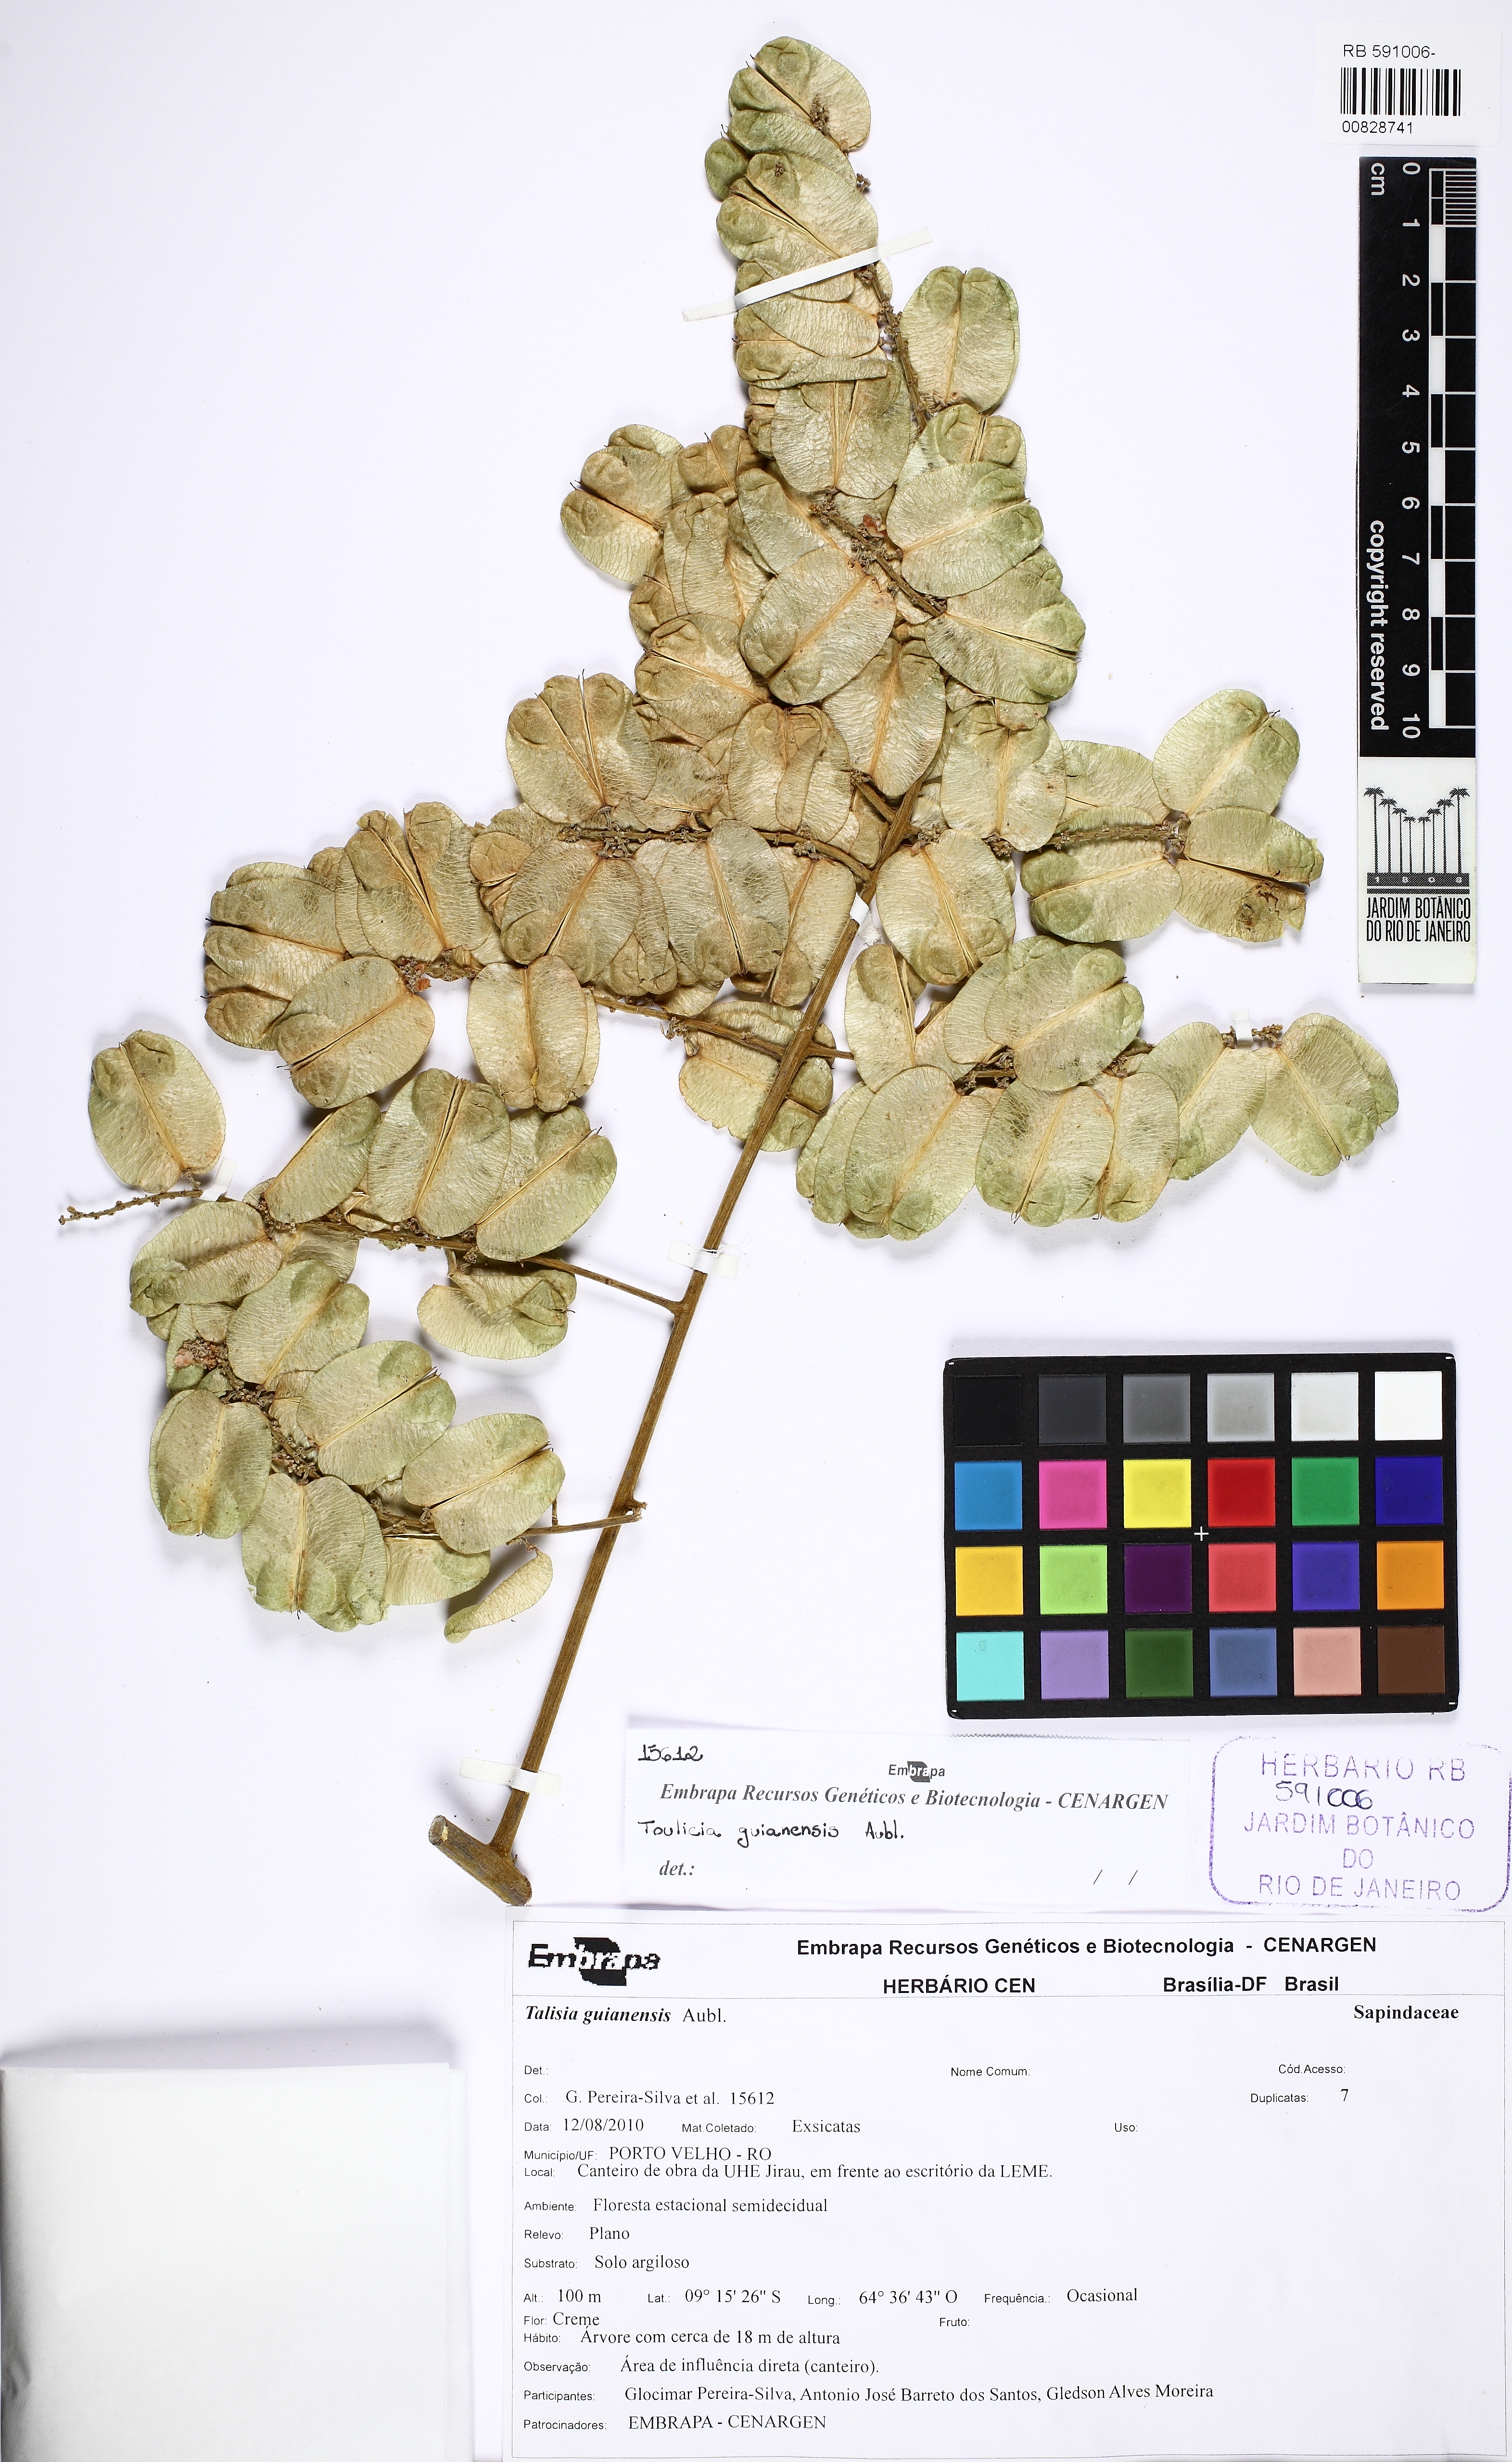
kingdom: Plantae
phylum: Tracheophyta
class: Magnoliopsida
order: Sapindales
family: Sapindaceae
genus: Toulicia
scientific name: Toulicia guianensis
